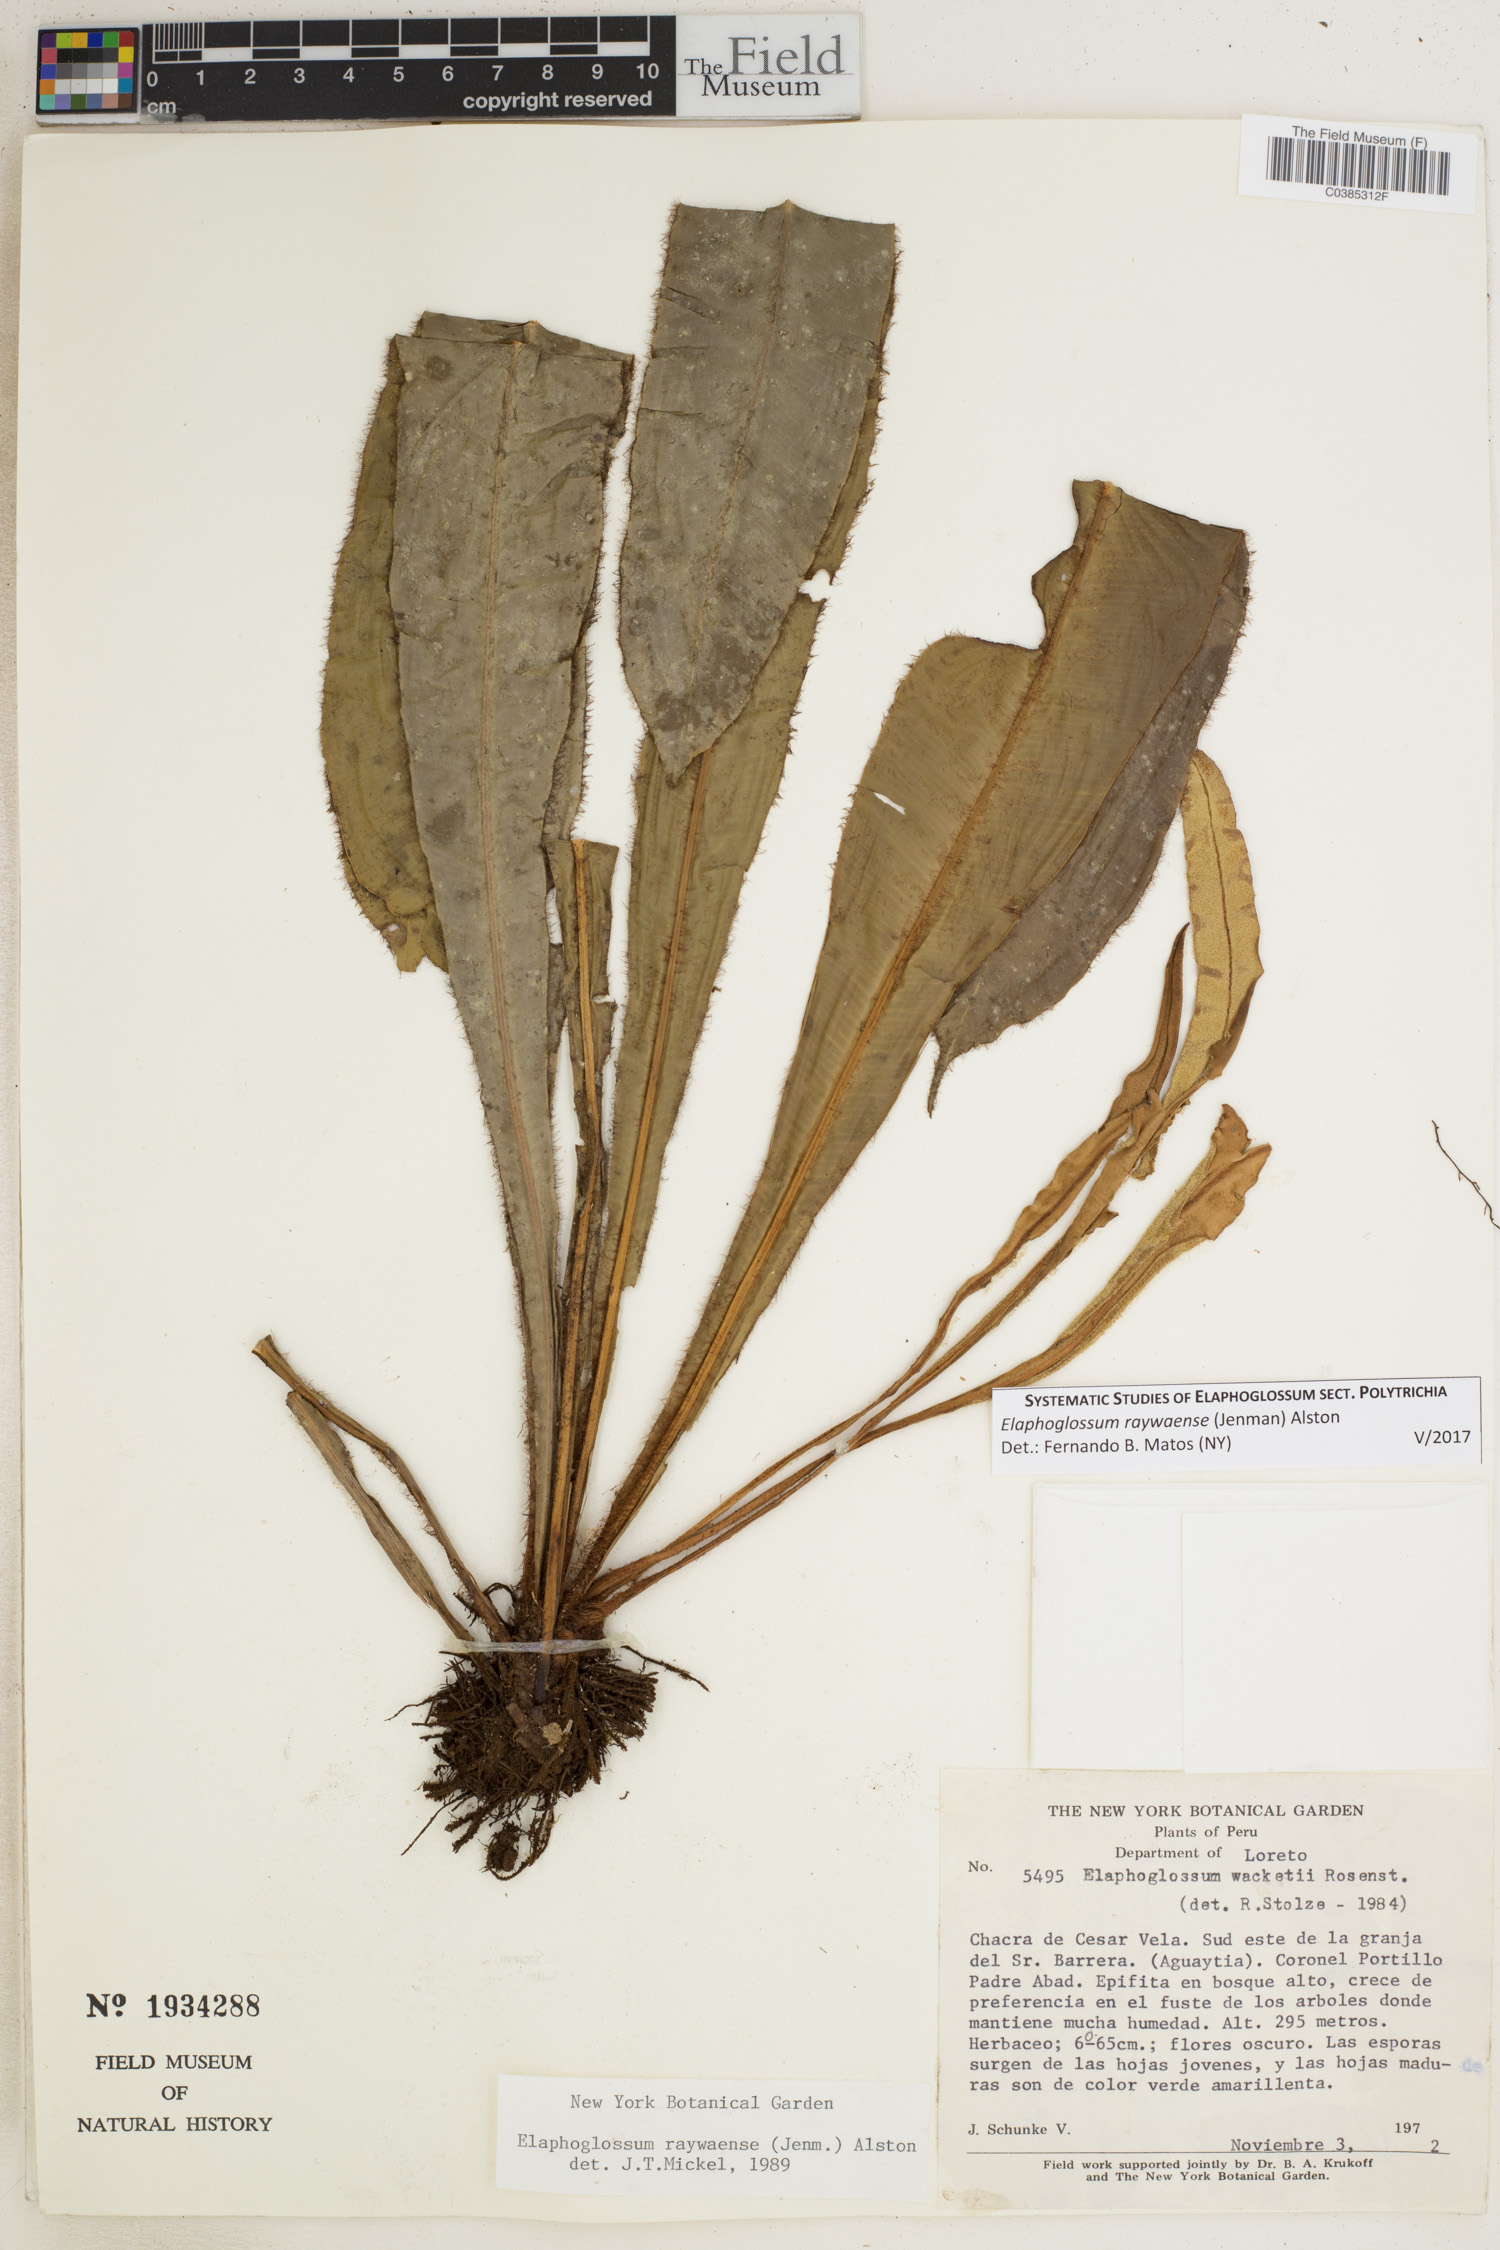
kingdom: Plantae
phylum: Tracheophyta
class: Polypodiopsida
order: Polypodiales
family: Dryopteridaceae
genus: Elaphoglossum
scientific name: Elaphoglossum raywaense
